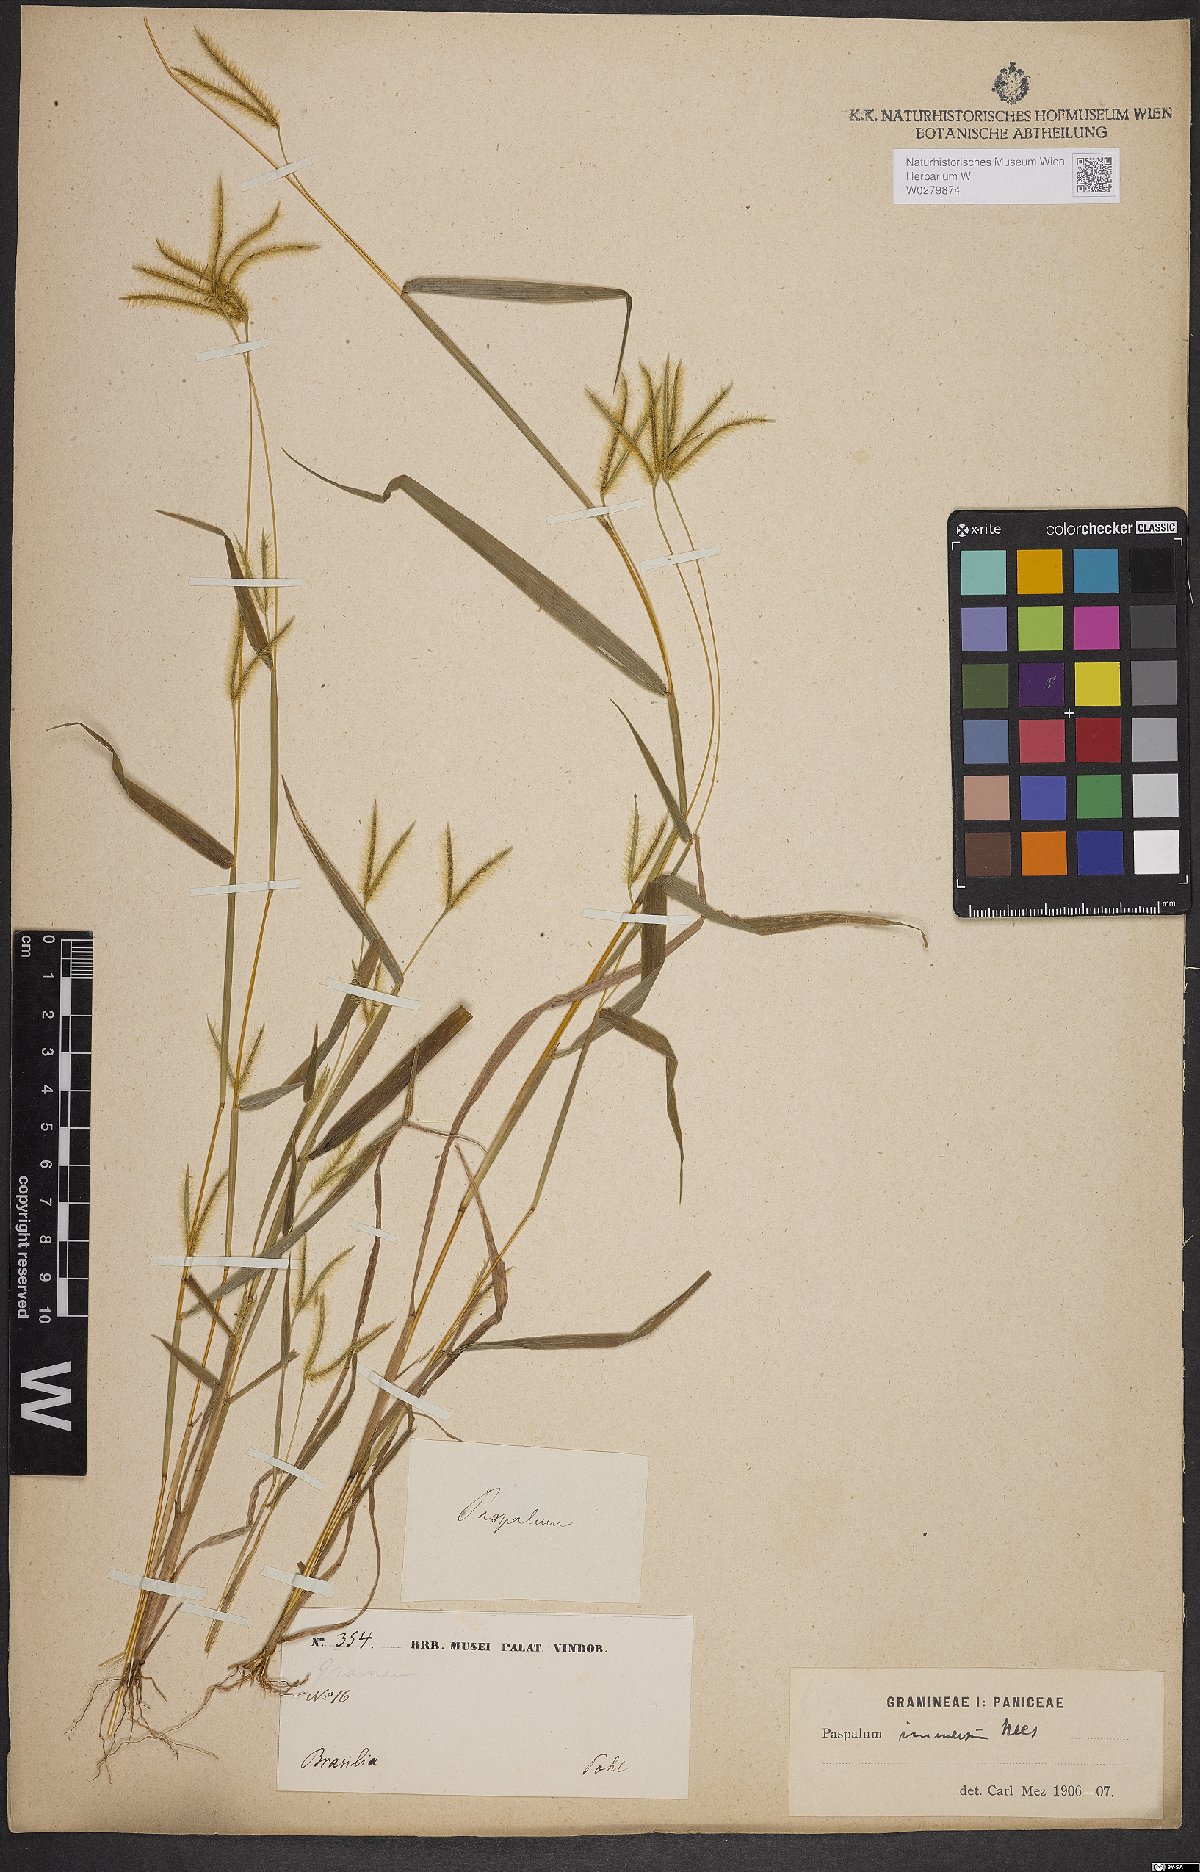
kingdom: Plantae
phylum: Tracheophyta
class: Liliopsida
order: Poales
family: Poaceae
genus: Axonopus
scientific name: Axonopus chrysoblepharis
